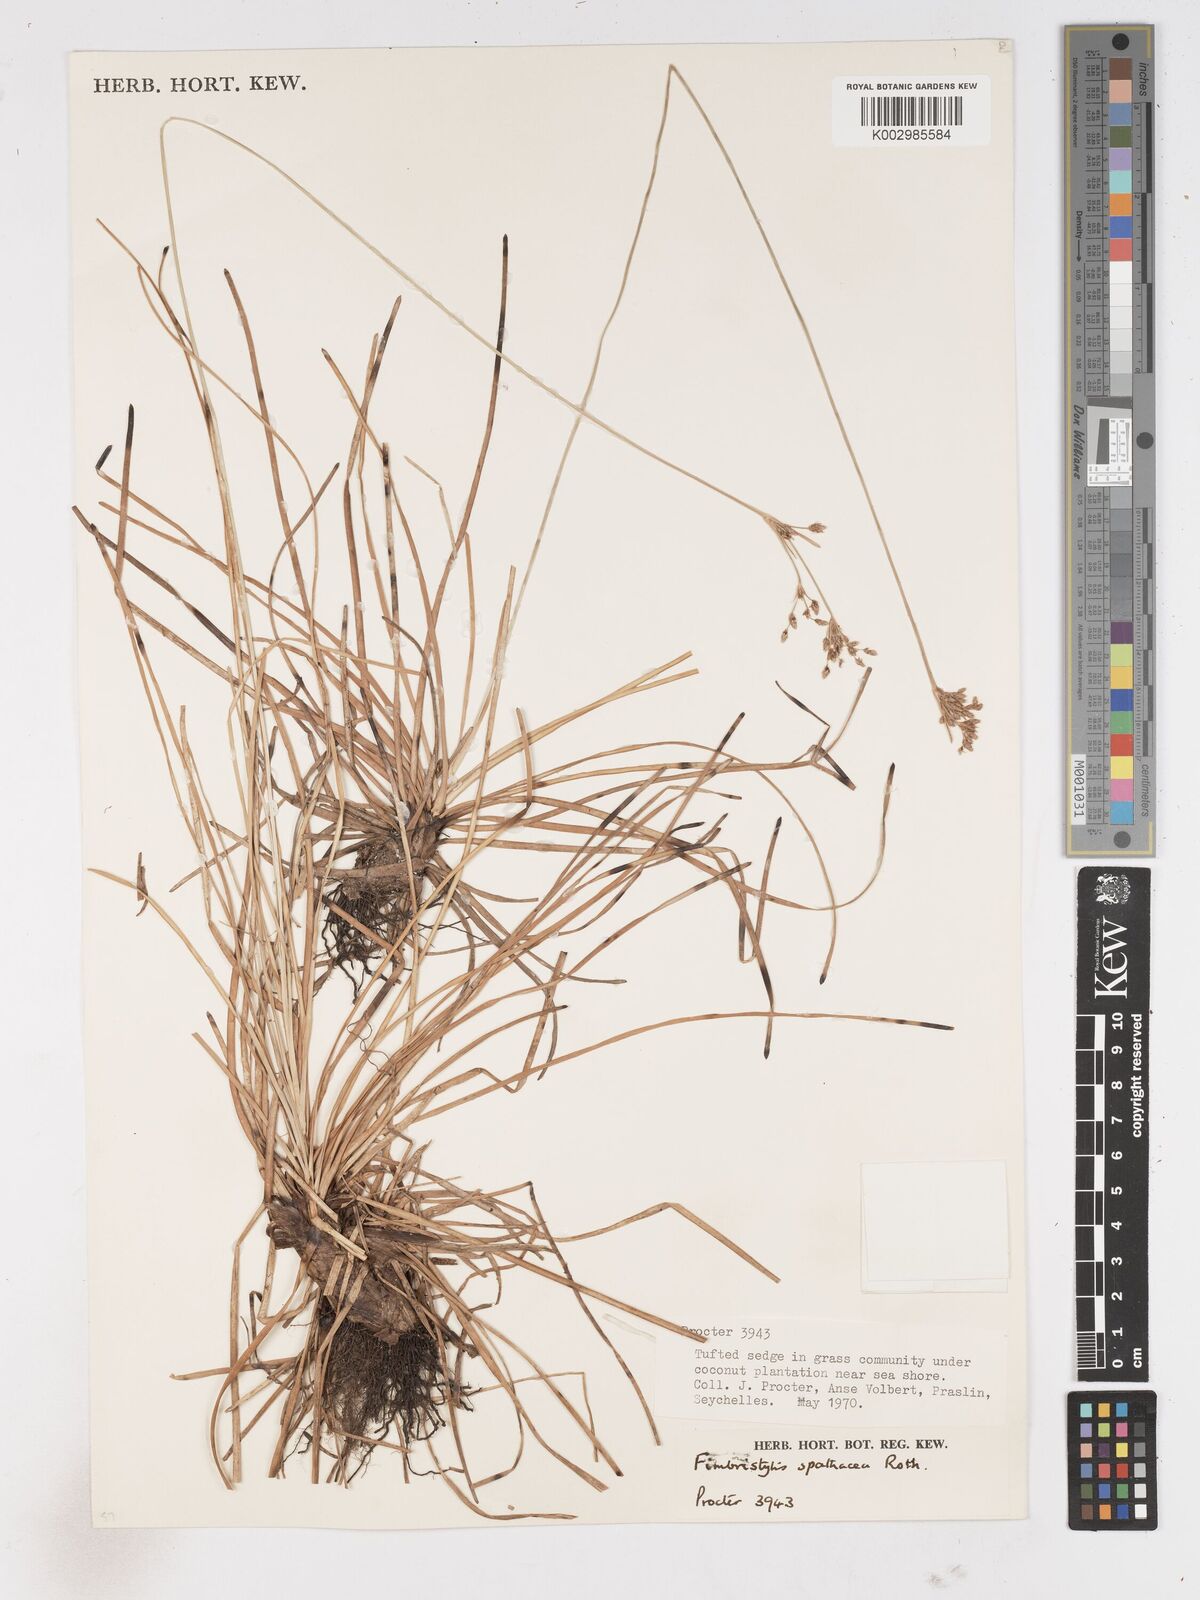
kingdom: Plantae
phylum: Tracheophyta
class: Liliopsida
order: Poales
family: Cyperaceae
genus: Fimbristylis
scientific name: Fimbristylis cymosa
